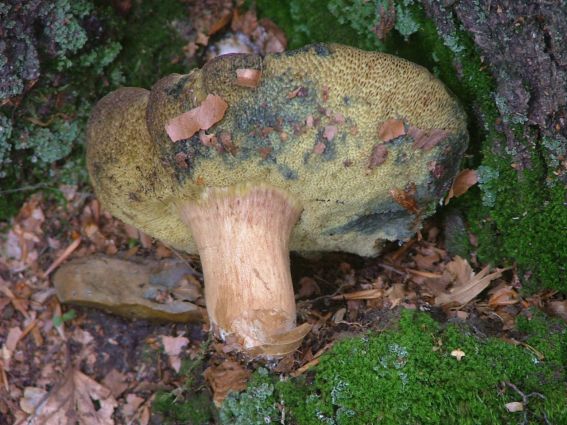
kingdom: Fungi
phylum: Basidiomycota
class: Agaricomycetes
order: Boletales
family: Boletaceae
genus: Hortiboletus
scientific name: Hortiboletus rubellus
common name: blodrød rørhat
